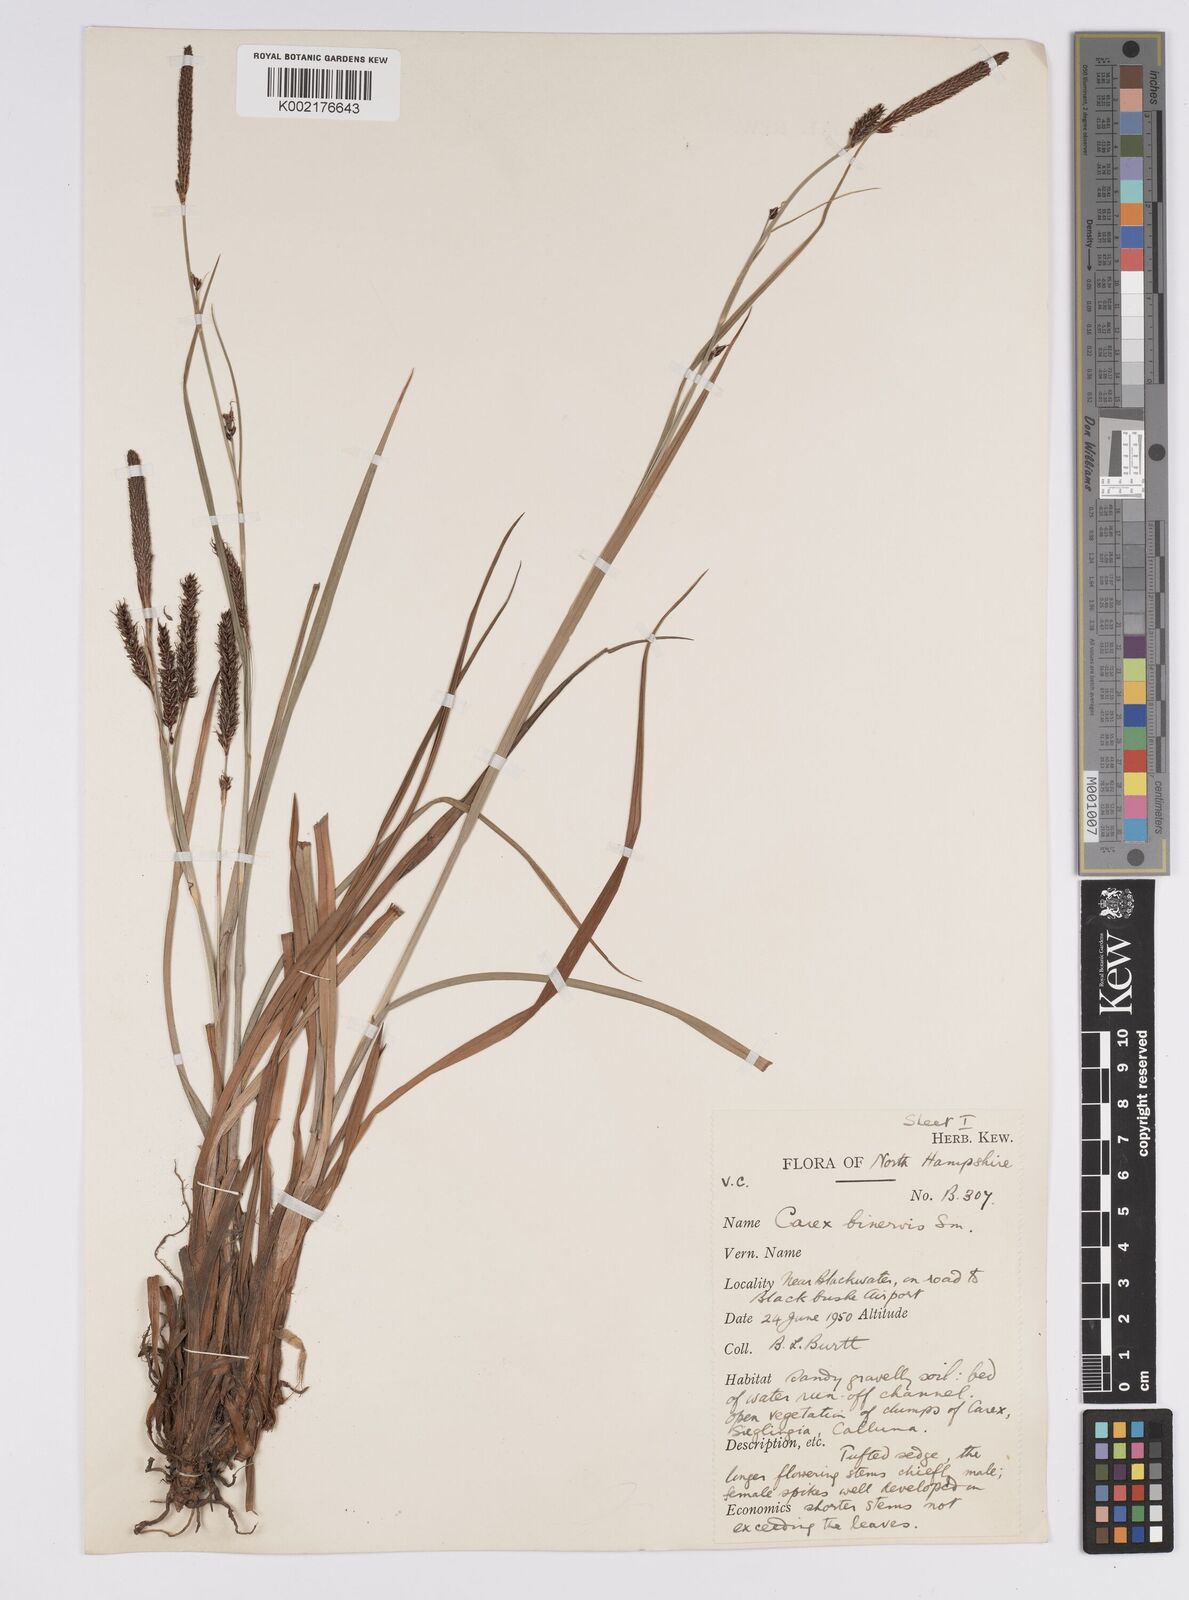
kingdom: Plantae
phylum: Tracheophyta
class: Liliopsida
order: Poales
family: Cyperaceae
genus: Carex
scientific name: Carex binervis
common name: Green-ribbed sedge
